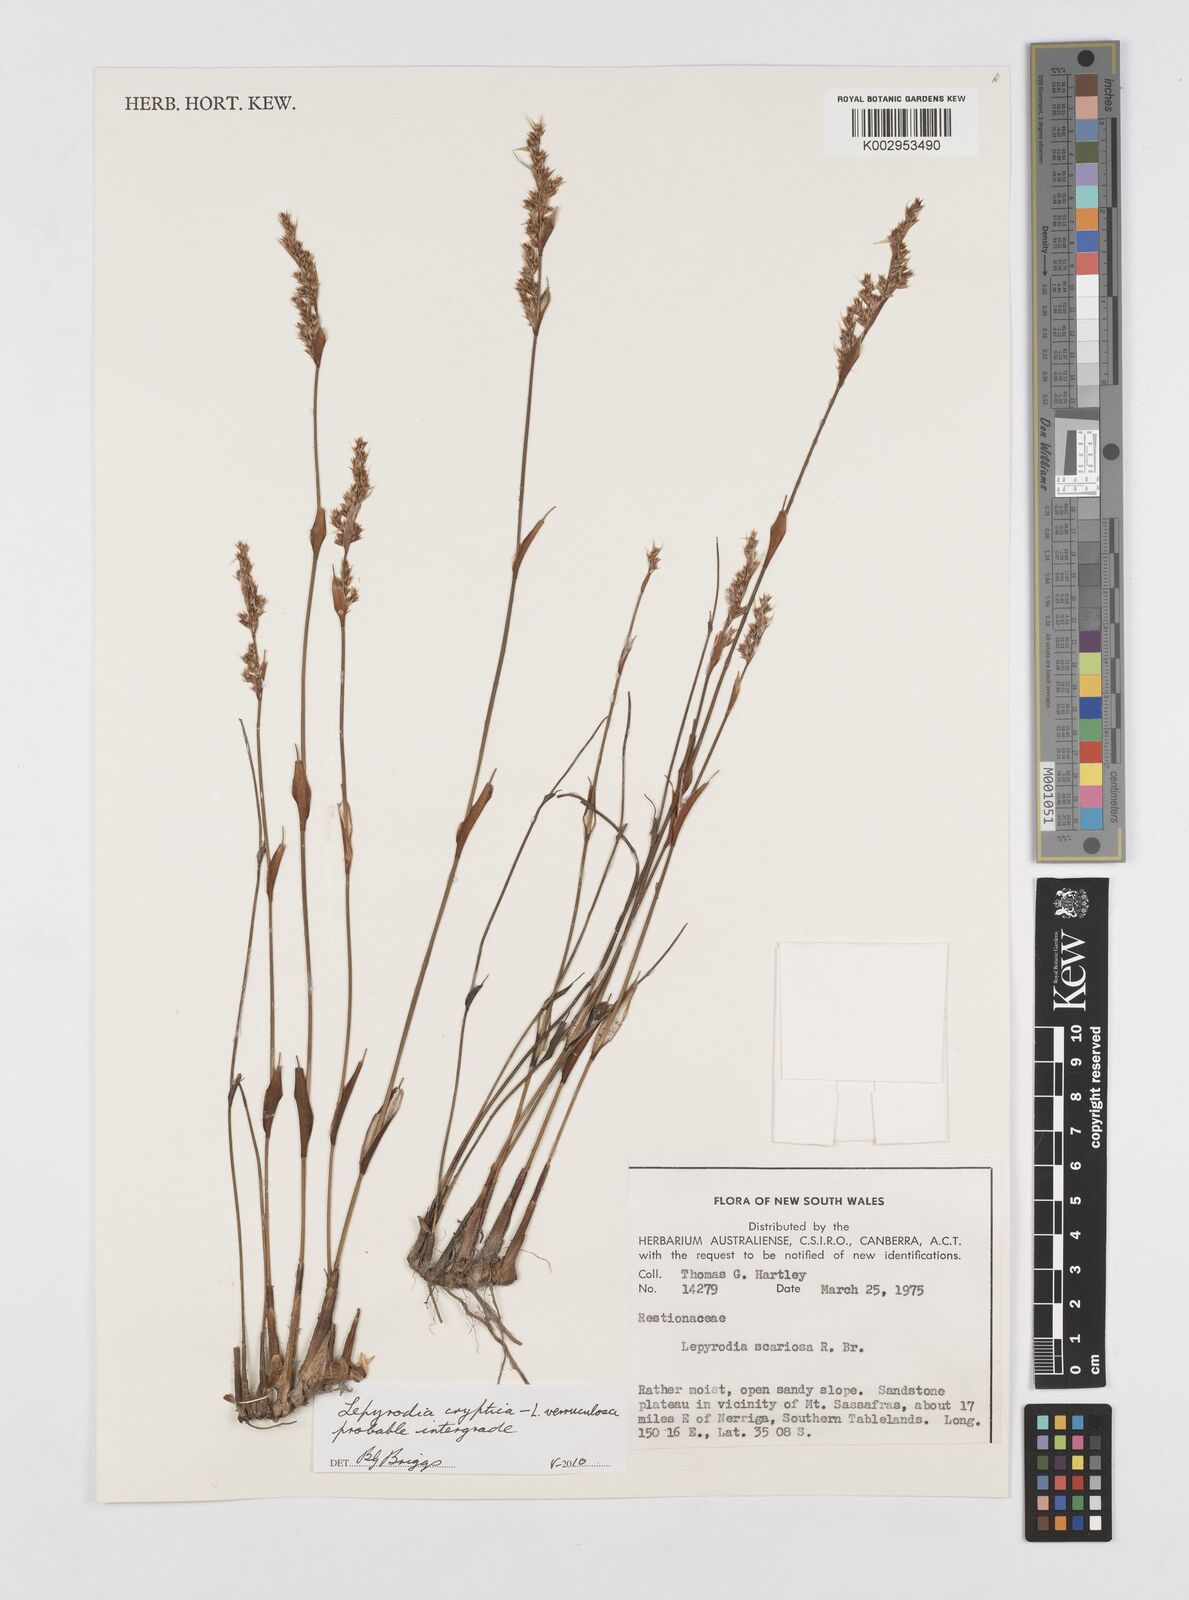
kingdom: Plantae
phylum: Tracheophyta
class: Liliopsida
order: Poales
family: Restionaceae
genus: Lepyrodia
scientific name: Lepyrodia
